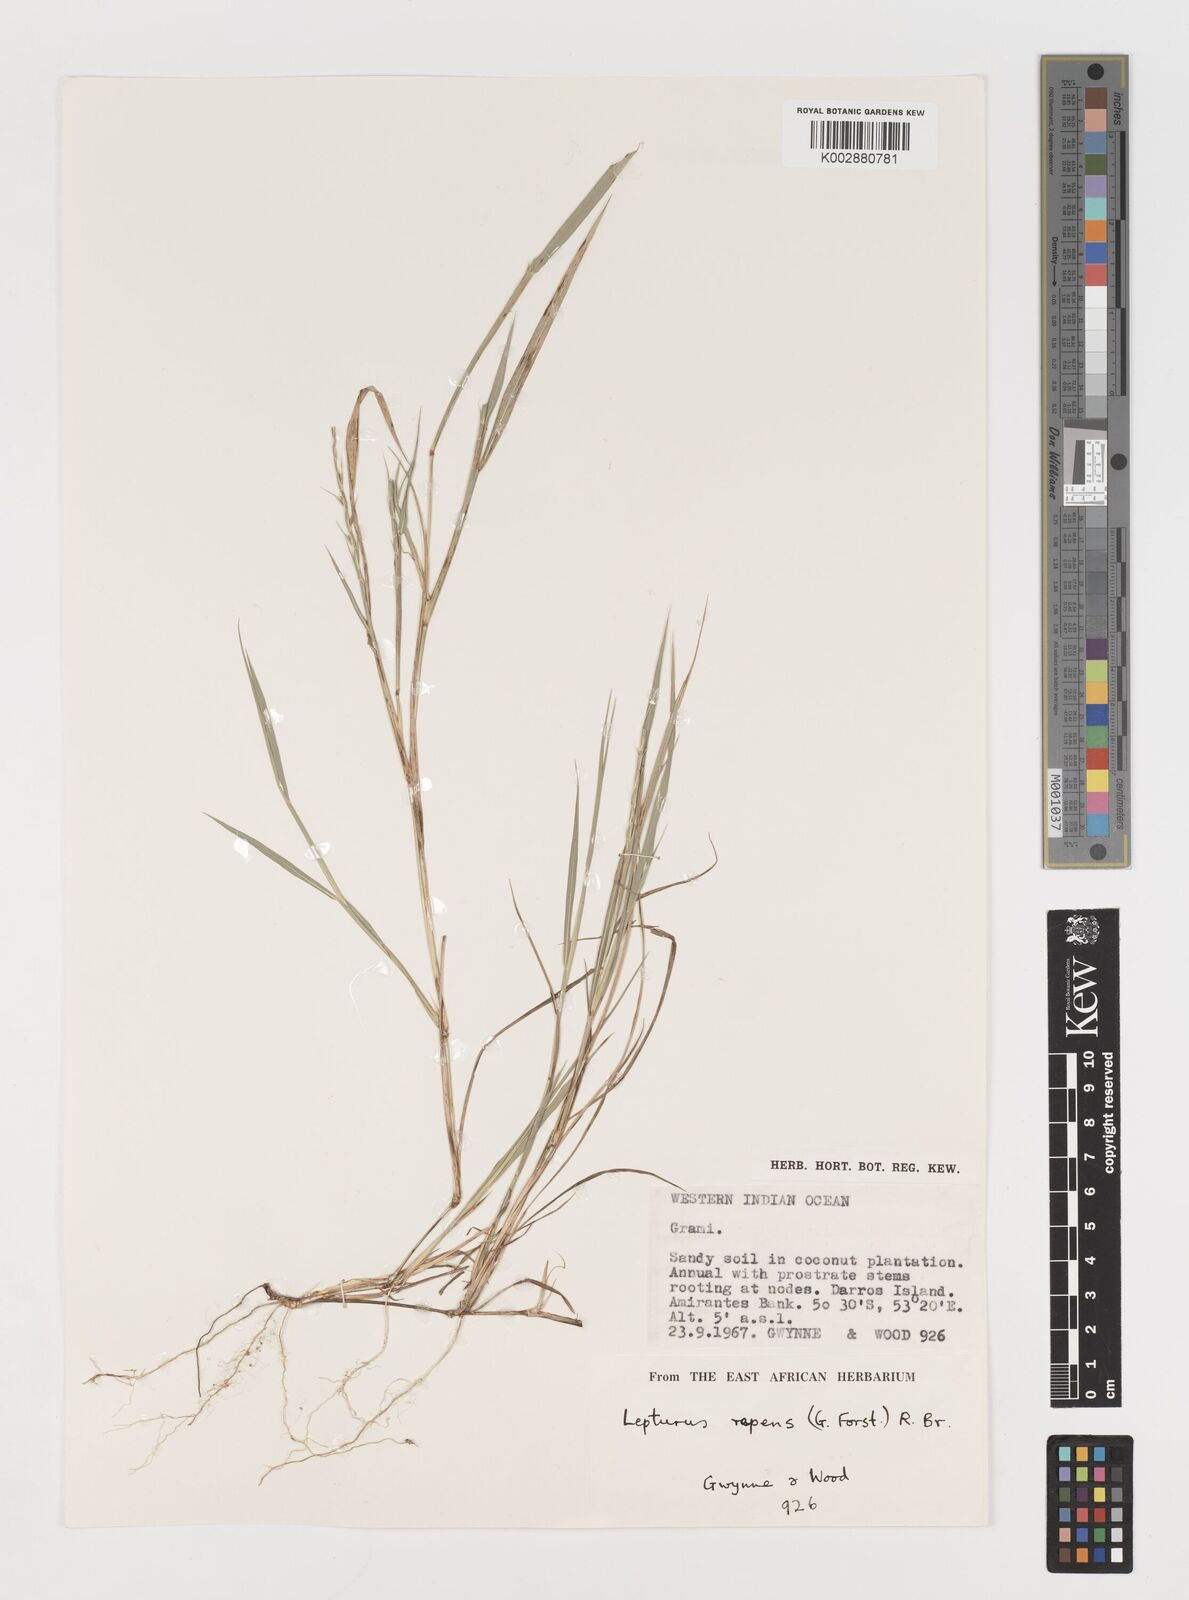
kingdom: Plantae
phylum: Tracheophyta
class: Liliopsida
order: Poales
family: Poaceae
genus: Lepturus
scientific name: Lepturus repens
